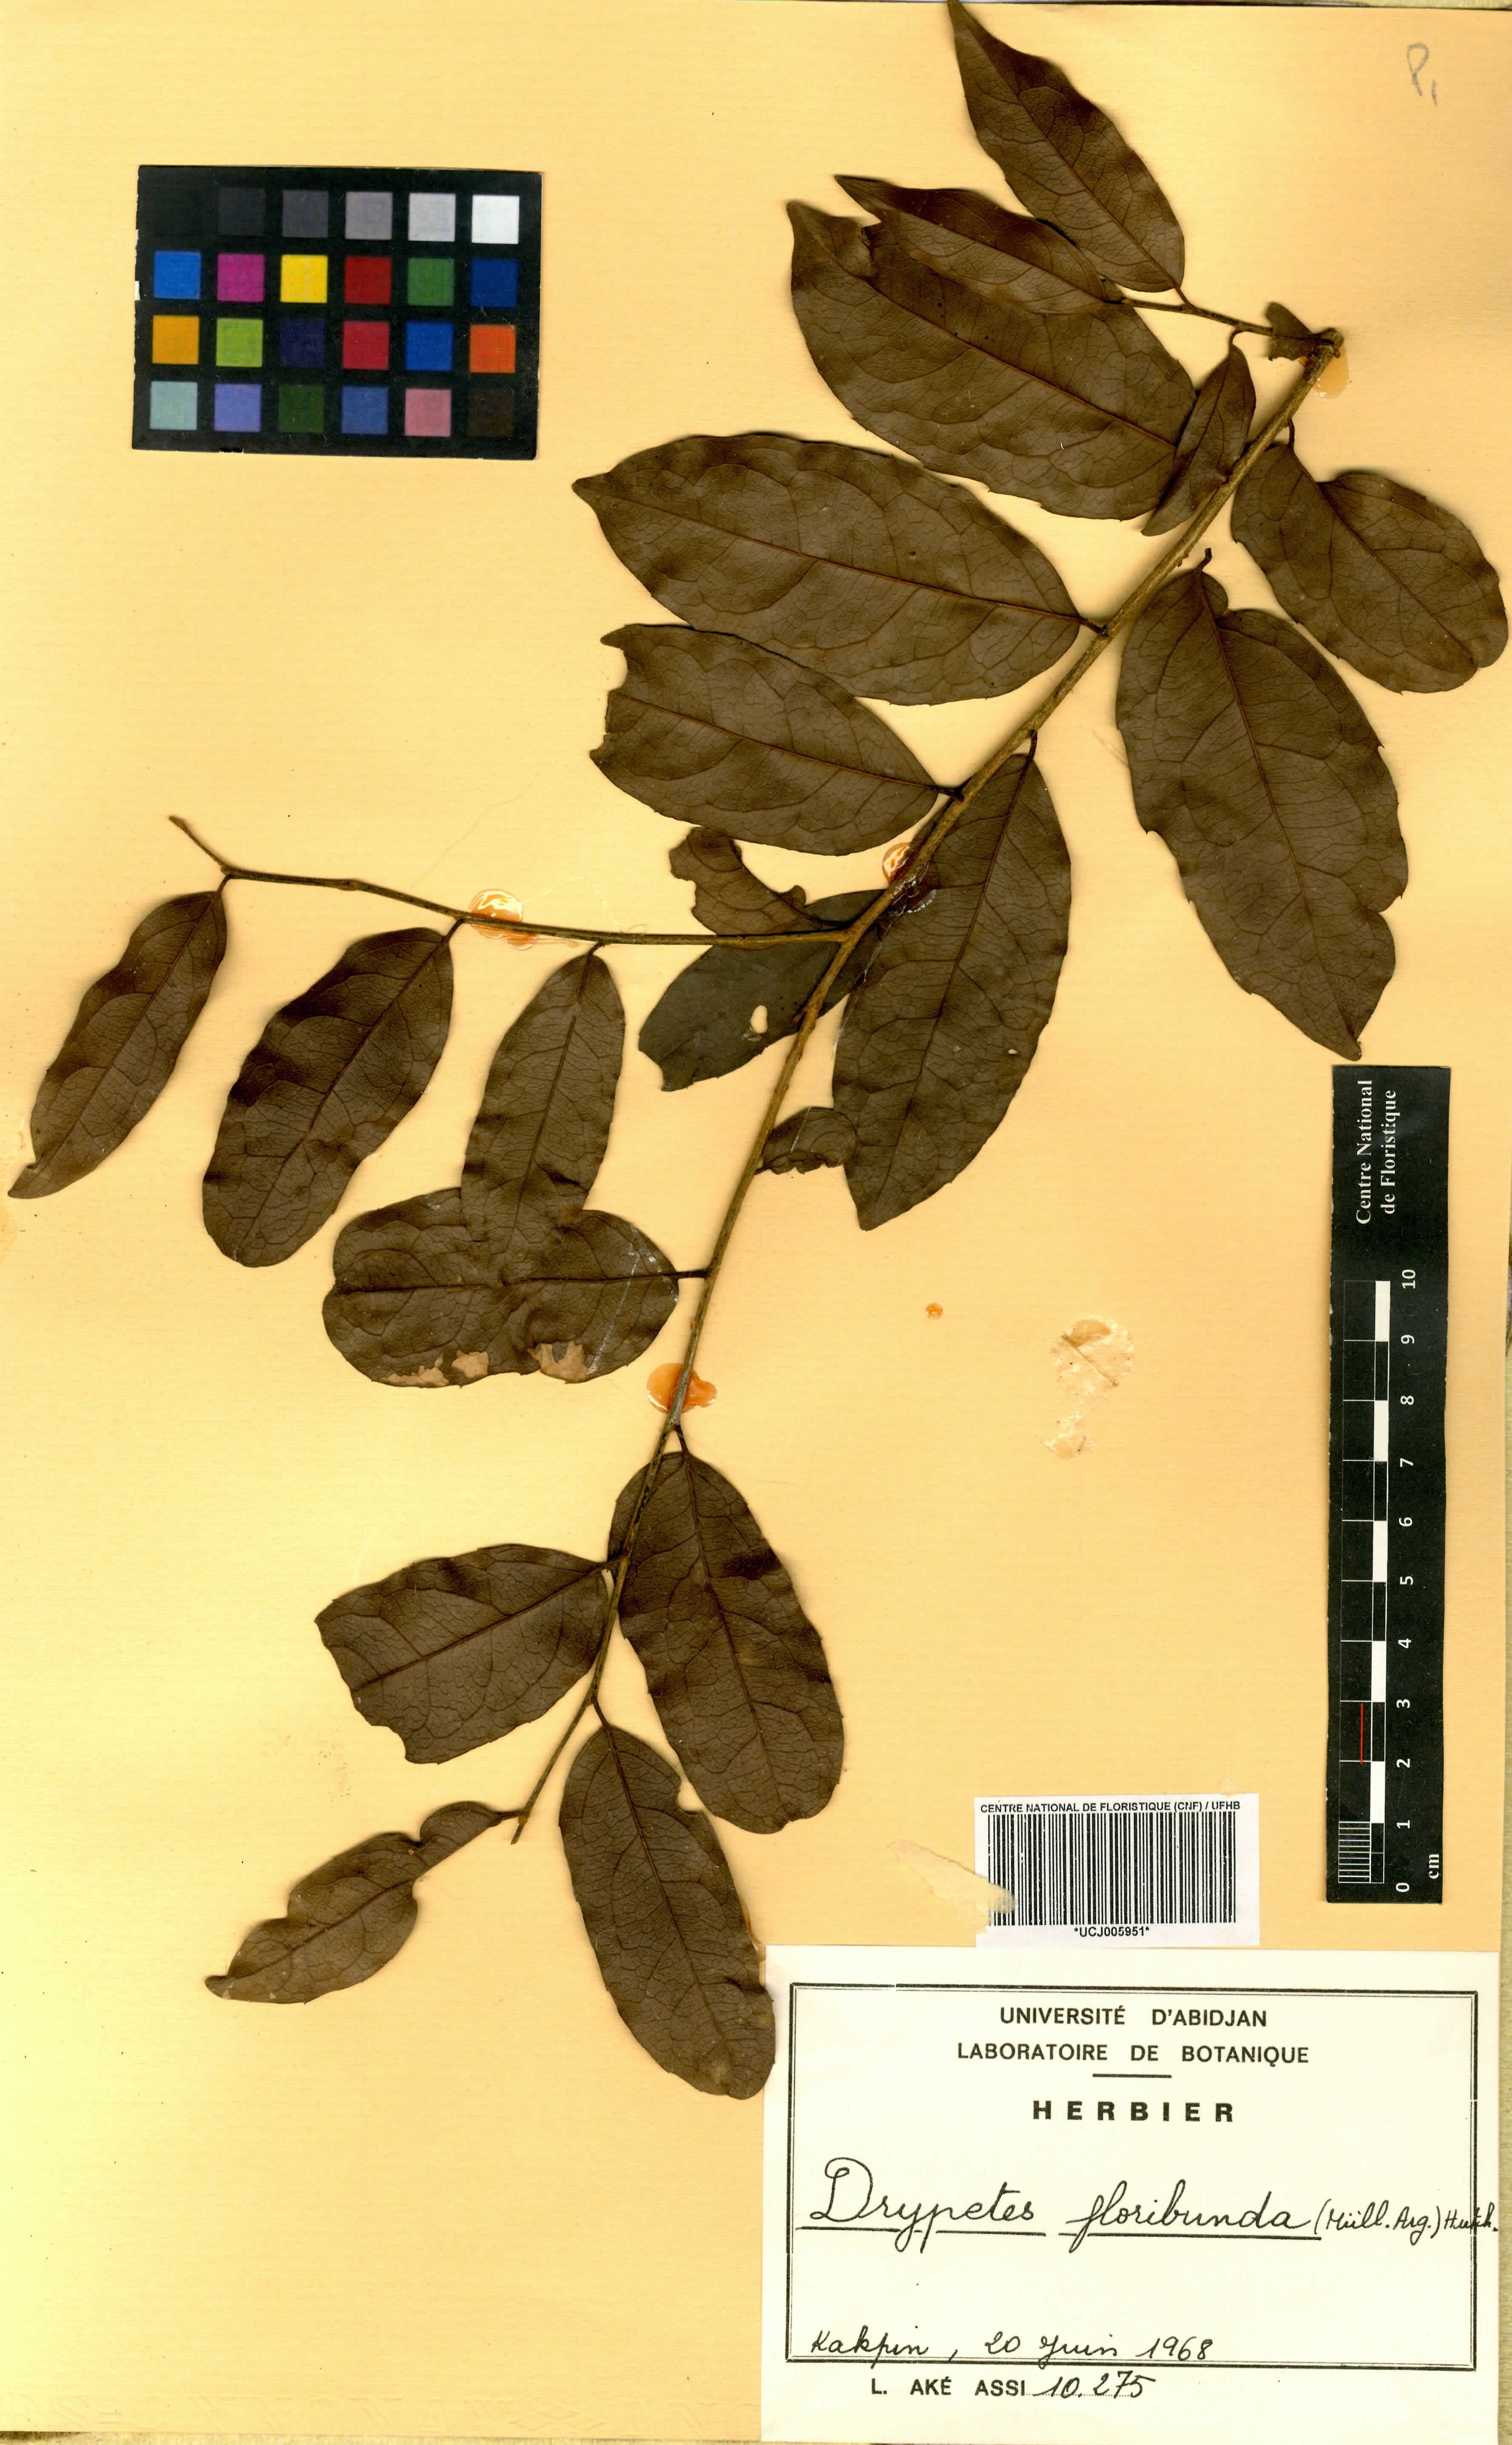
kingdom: Plantae
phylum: Tracheophyta
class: Magnoliopsida
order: Malpighiales
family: Putranjivaceae
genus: Drypetes
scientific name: Drypetes floribunda
